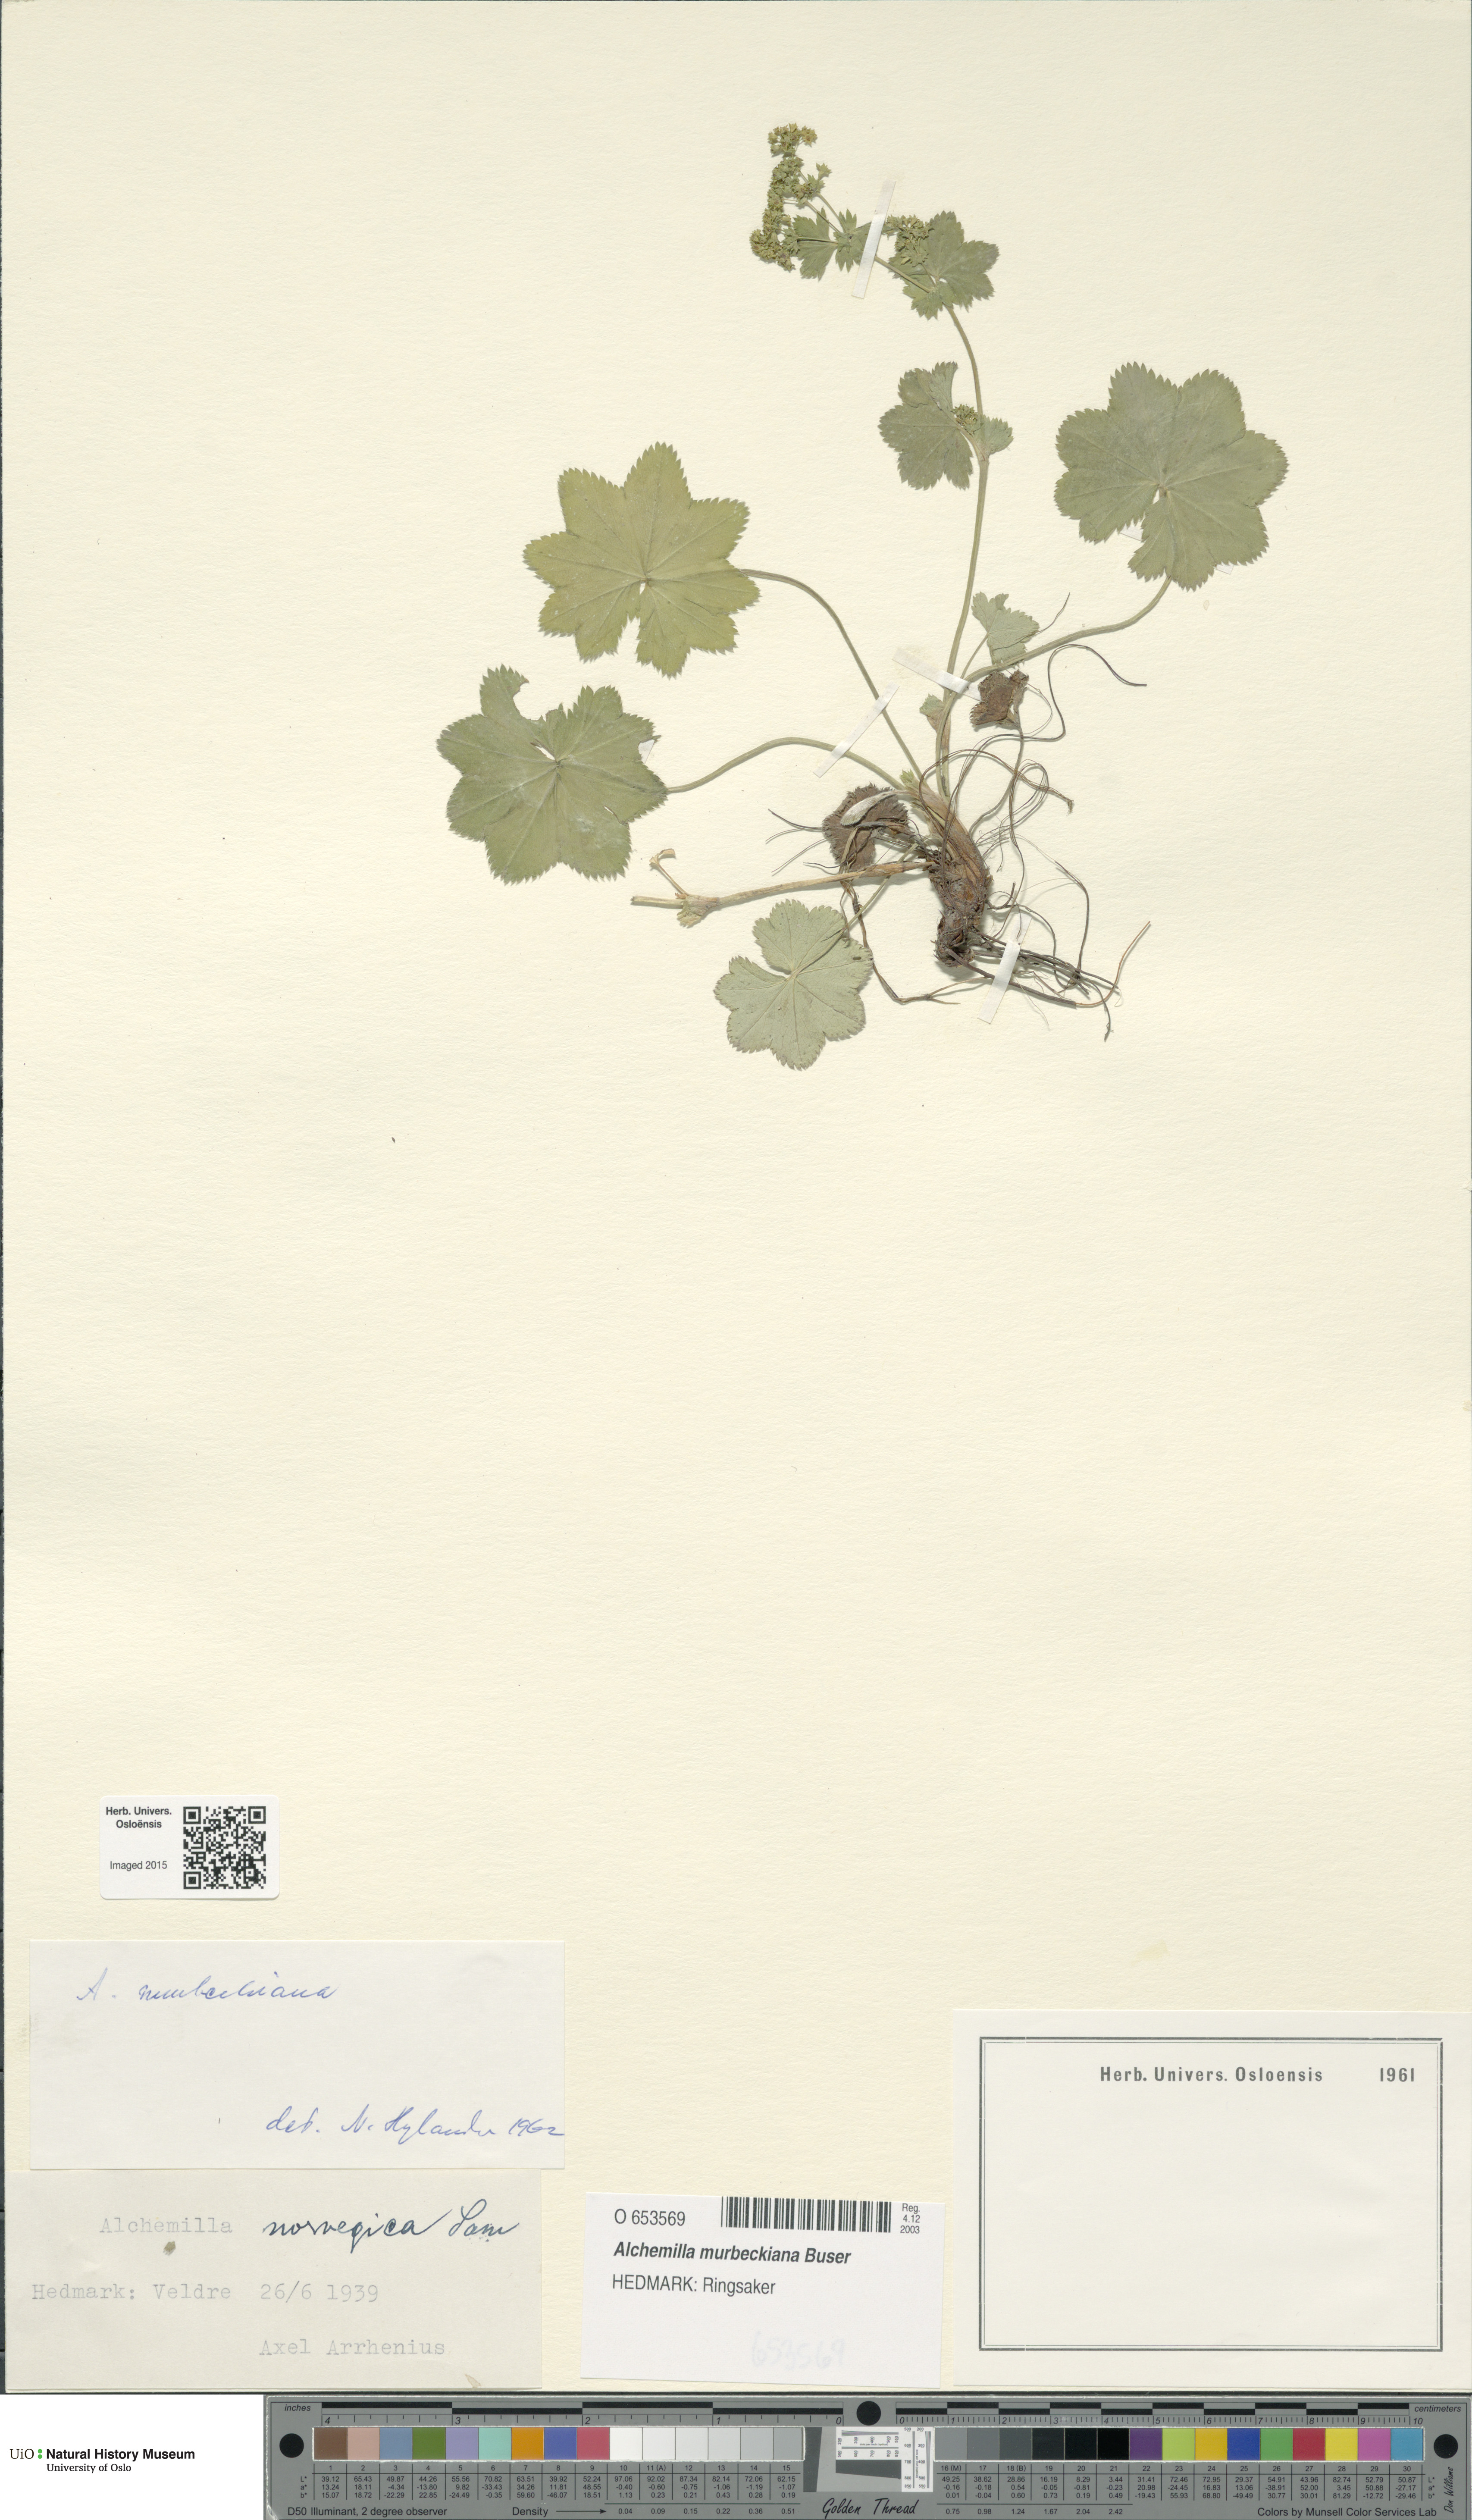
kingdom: Plantae
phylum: Tracheophyta
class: Magnoliopsida
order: Rosales
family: Rosaceae
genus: Alchemilla
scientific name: Alchemilla murbeckiana
